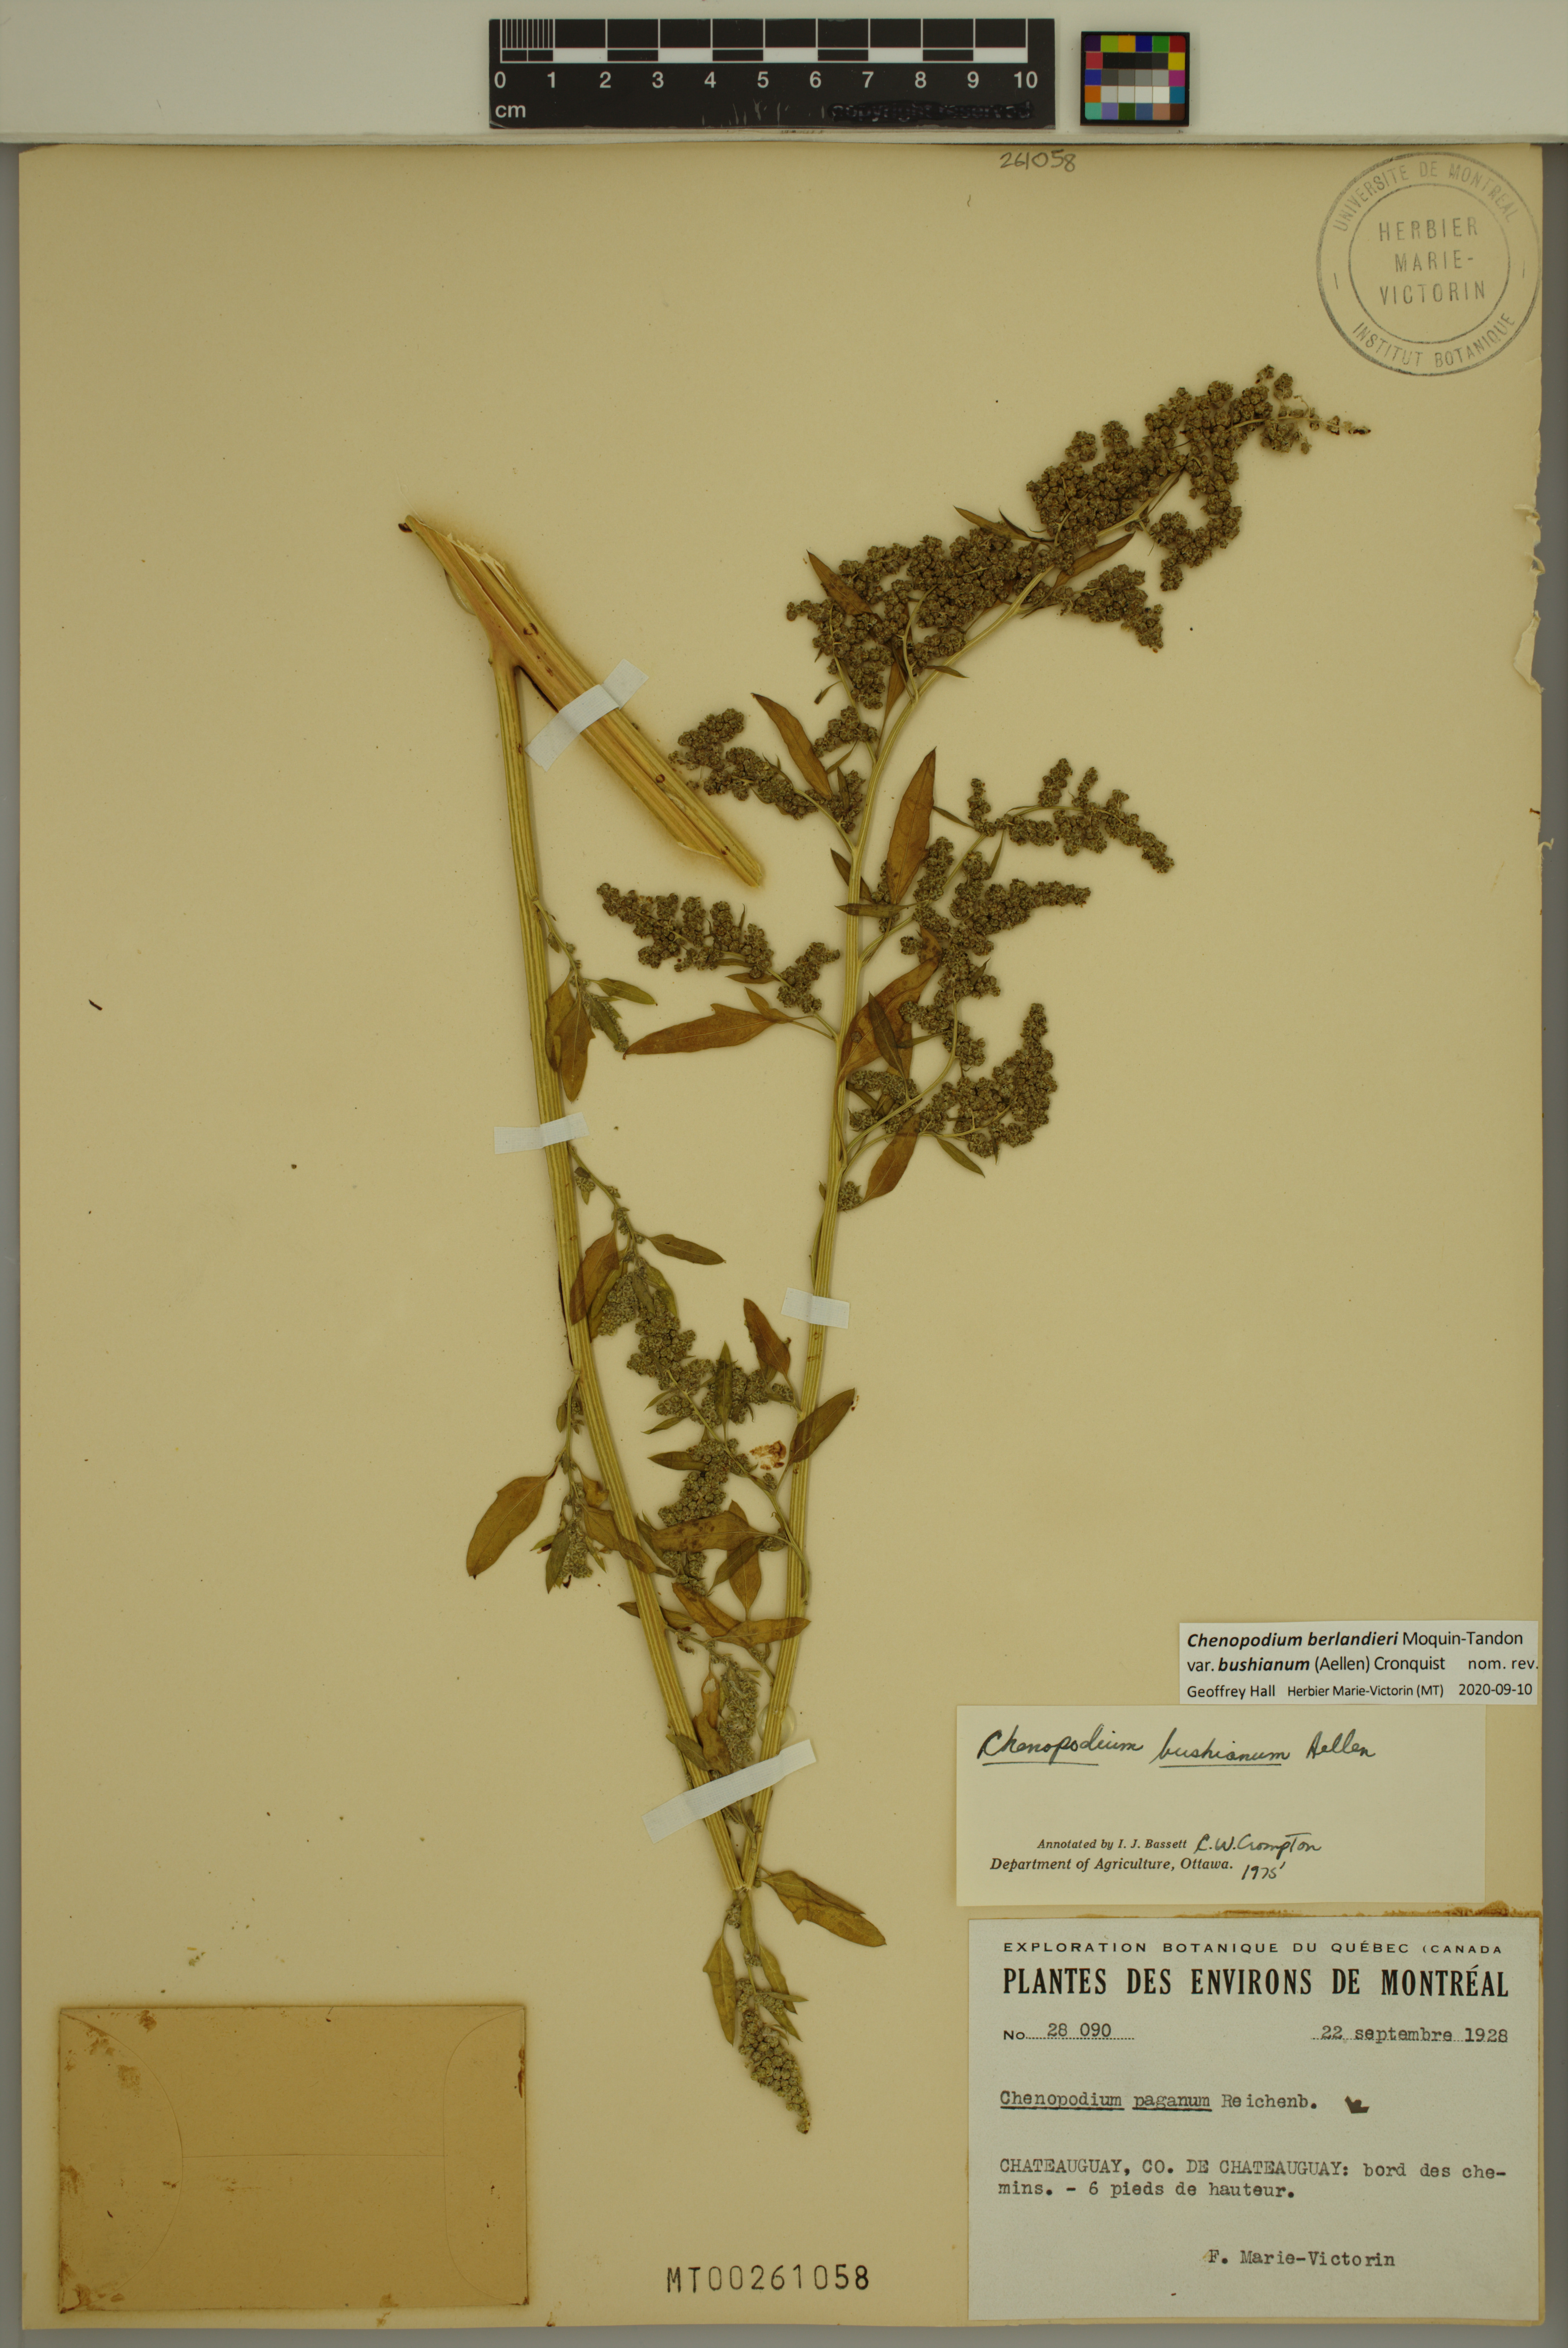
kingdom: Plantae
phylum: Tracheophyta
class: Magnoliopsida
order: Caryophyllales
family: Amaranthaceae
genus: Chenopodium
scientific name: Chenopodium berlandieri
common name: Pit-seed goosefoot
